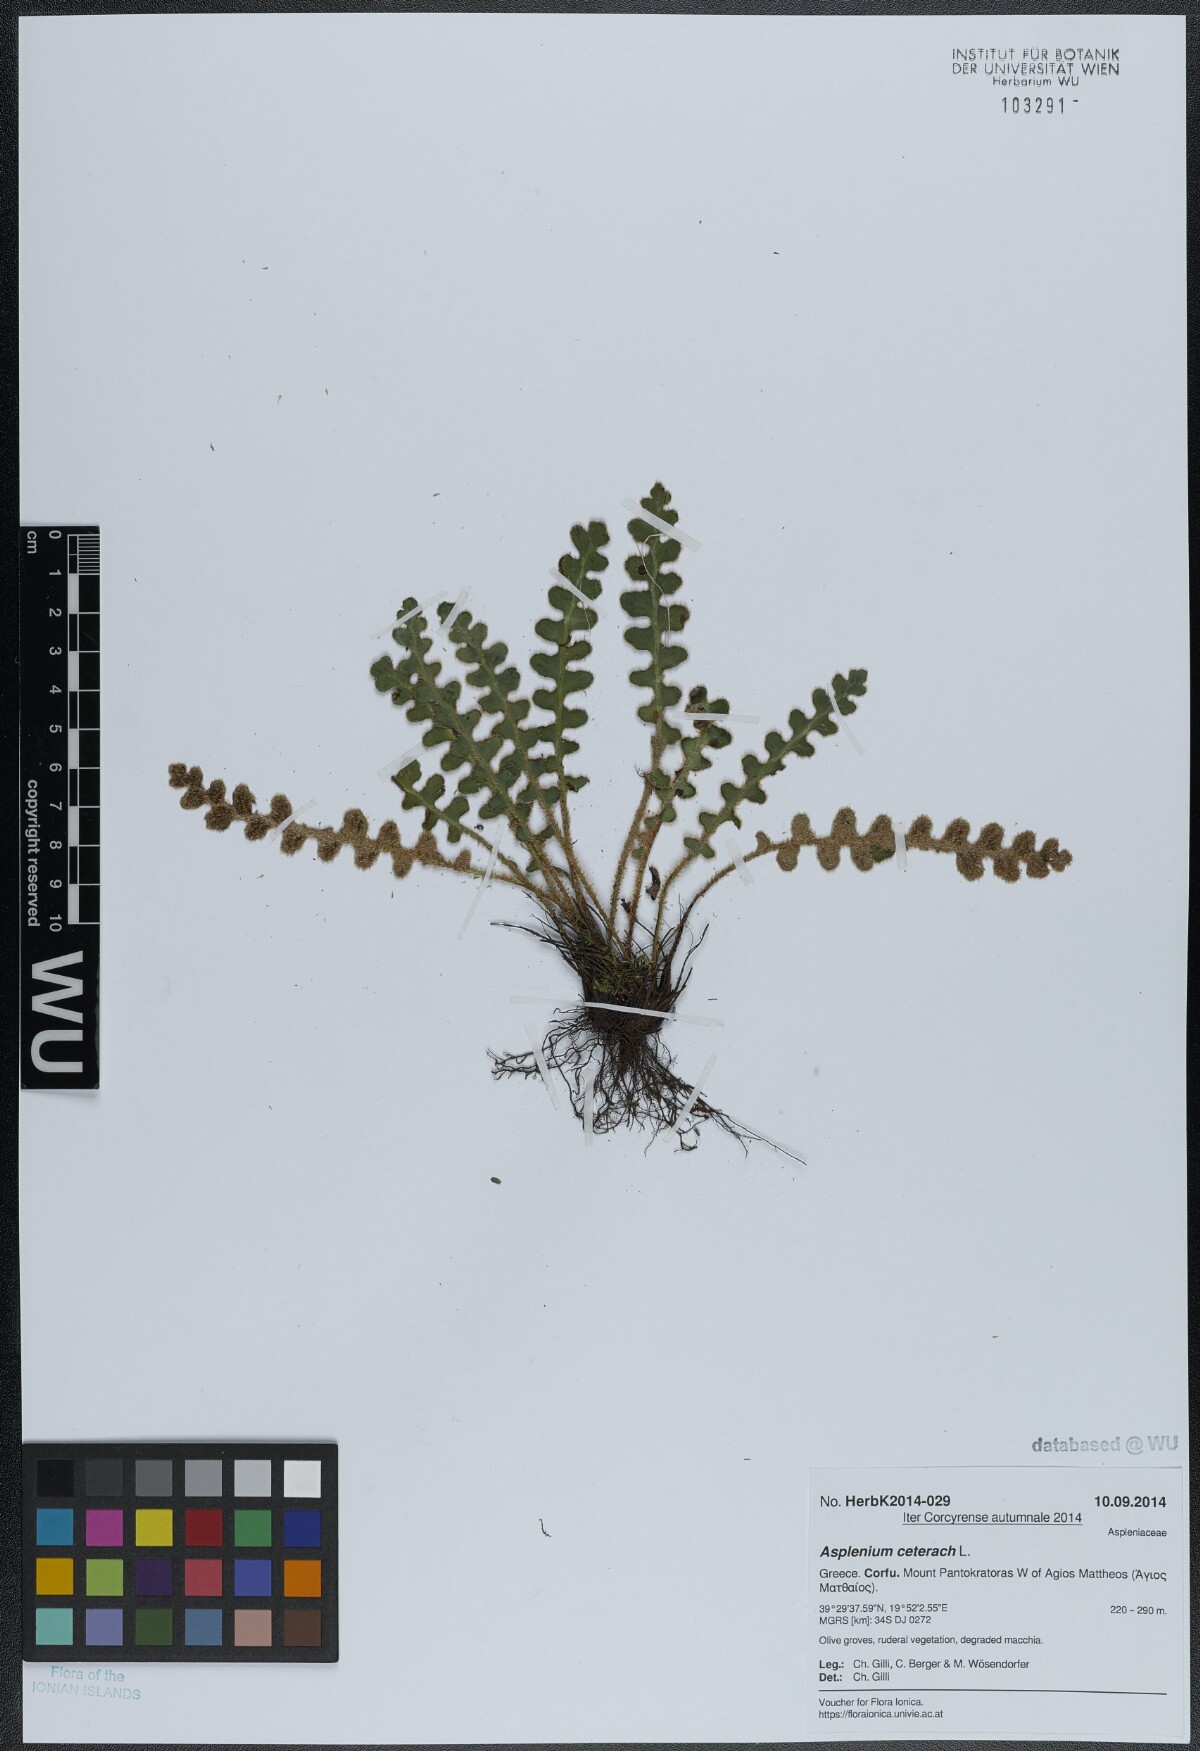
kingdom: Plantae
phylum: Tracheophyta
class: Polypodiopsida
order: Polypodiales
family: Aspleniaceae
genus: Asplenium
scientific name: Asplenium ceterach
